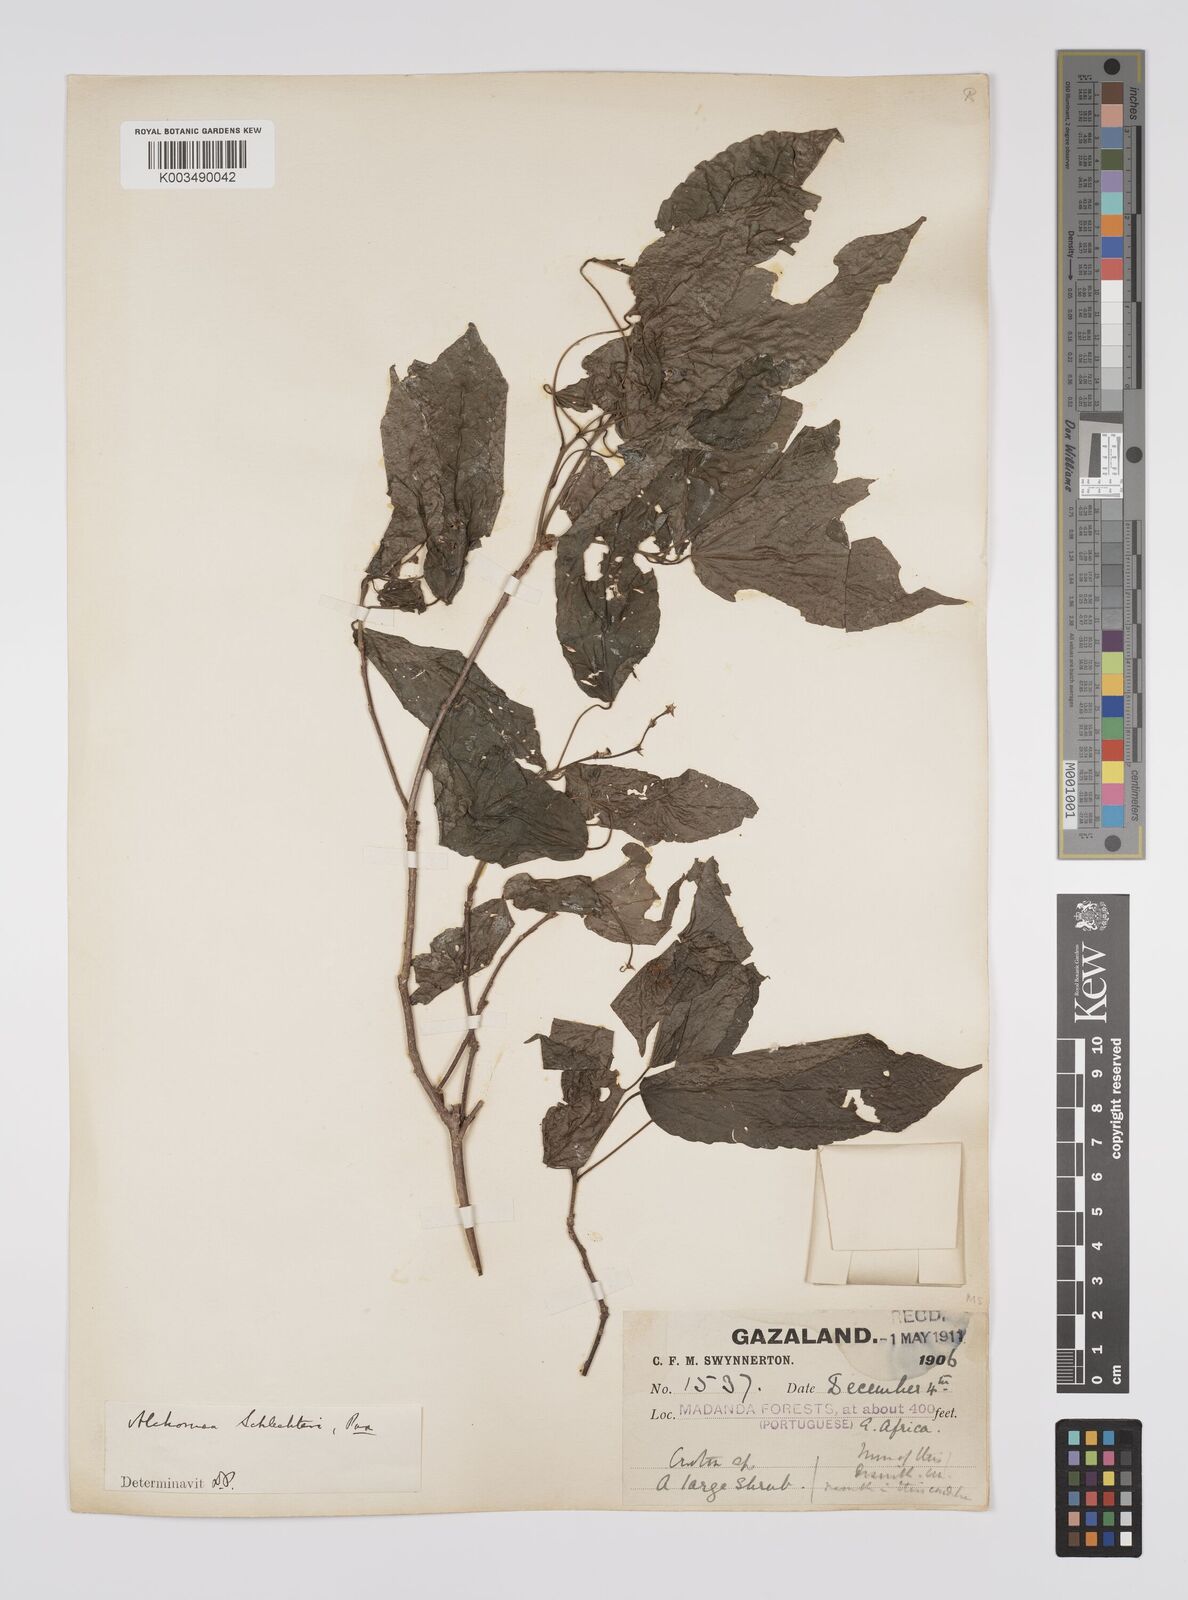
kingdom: Plantae
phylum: Tracheophyta
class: Magnoliopsida
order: Malpighiales
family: Euphorbiaceae
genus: Alchornea
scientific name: Alchornea laxiflora
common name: Lowveld bead-string
